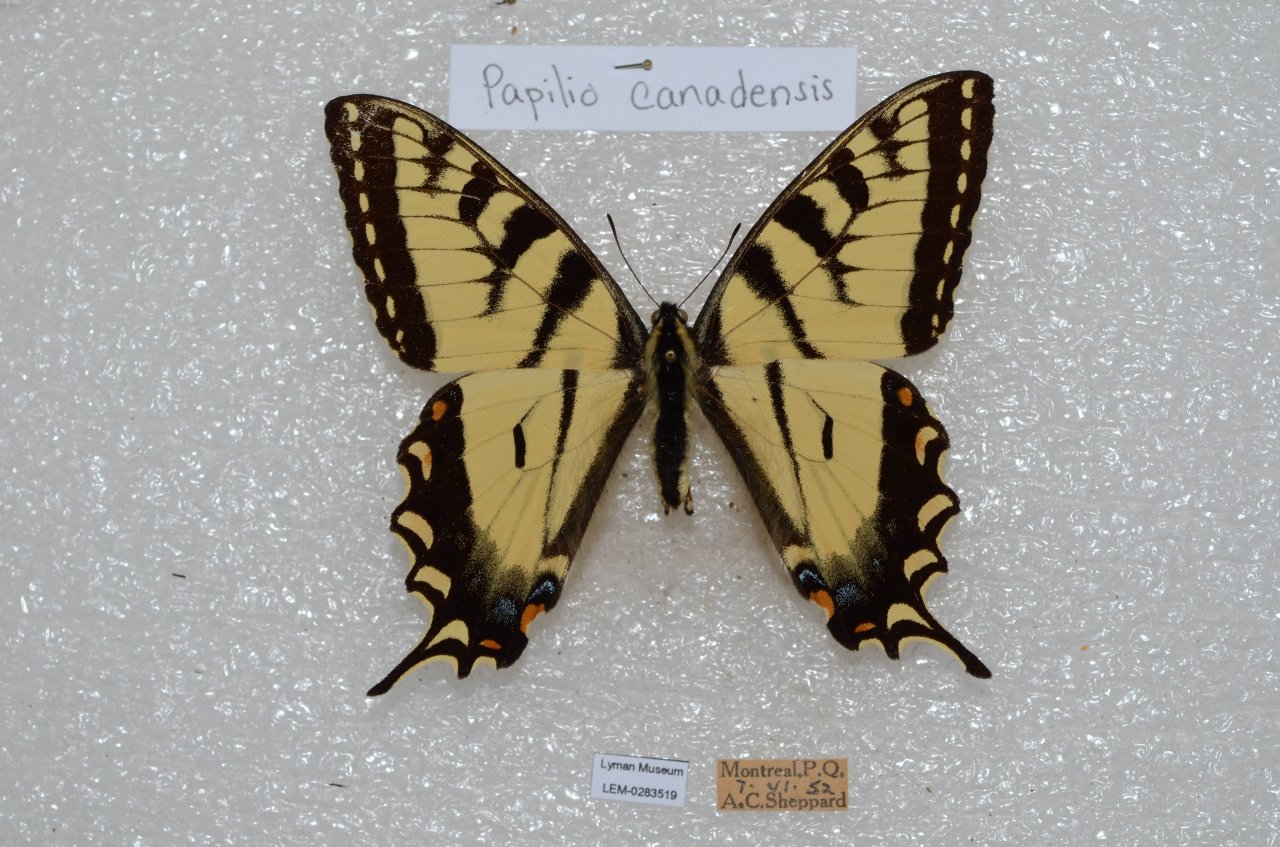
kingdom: Animalia
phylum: Arthropoda
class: Insecta
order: Lepidoptera
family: Papilionidae
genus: Pterourus
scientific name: Pterourus canadensis
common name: Canadian Tiger Swallowtail
